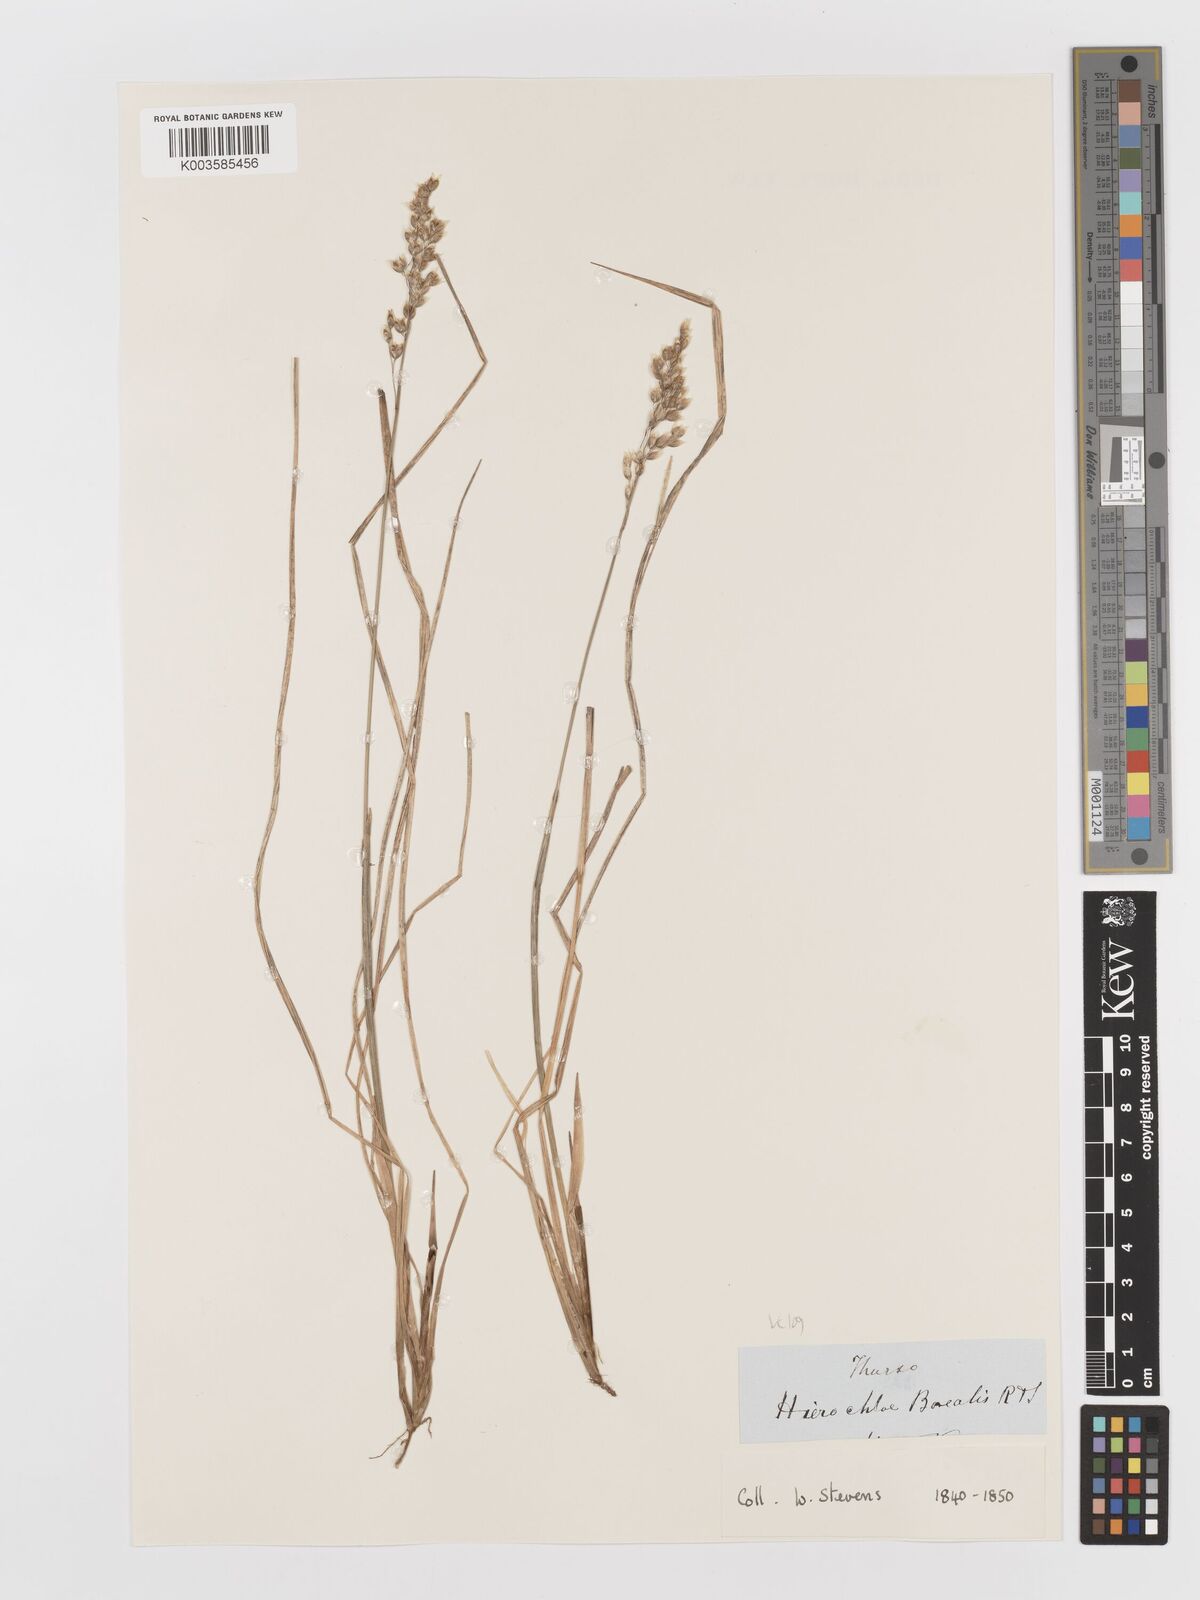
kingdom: Plantae
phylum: Tracheophyta
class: Liliopsida
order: Poales
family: Poaceae
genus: Anthoxanthum
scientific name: Anthoxanthum nitens
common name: Holy grass
